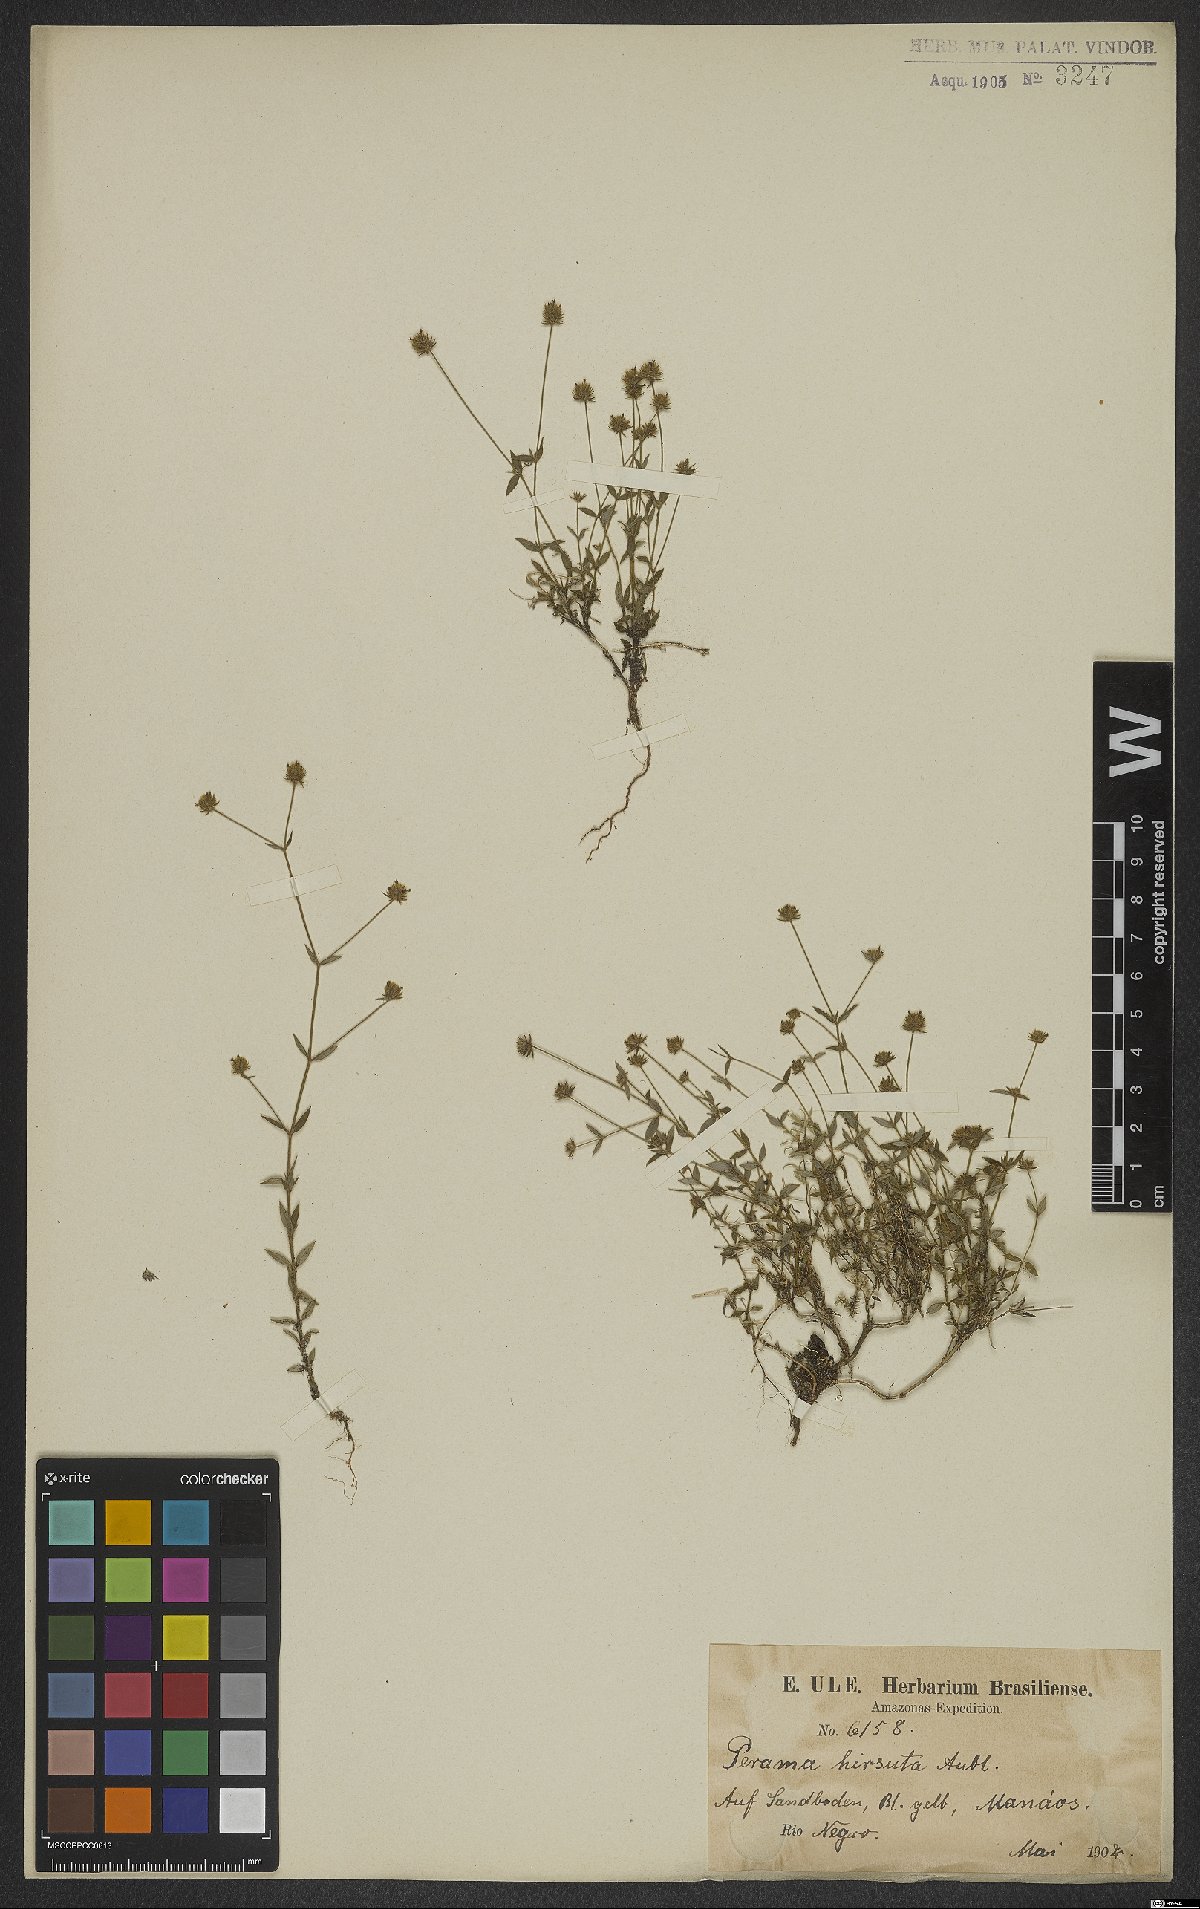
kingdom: Plantae
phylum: Tracheophyta
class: Magnoliopsida
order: Gentianales
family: Rubiaceae
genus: Perama
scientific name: Perama hirsuta
